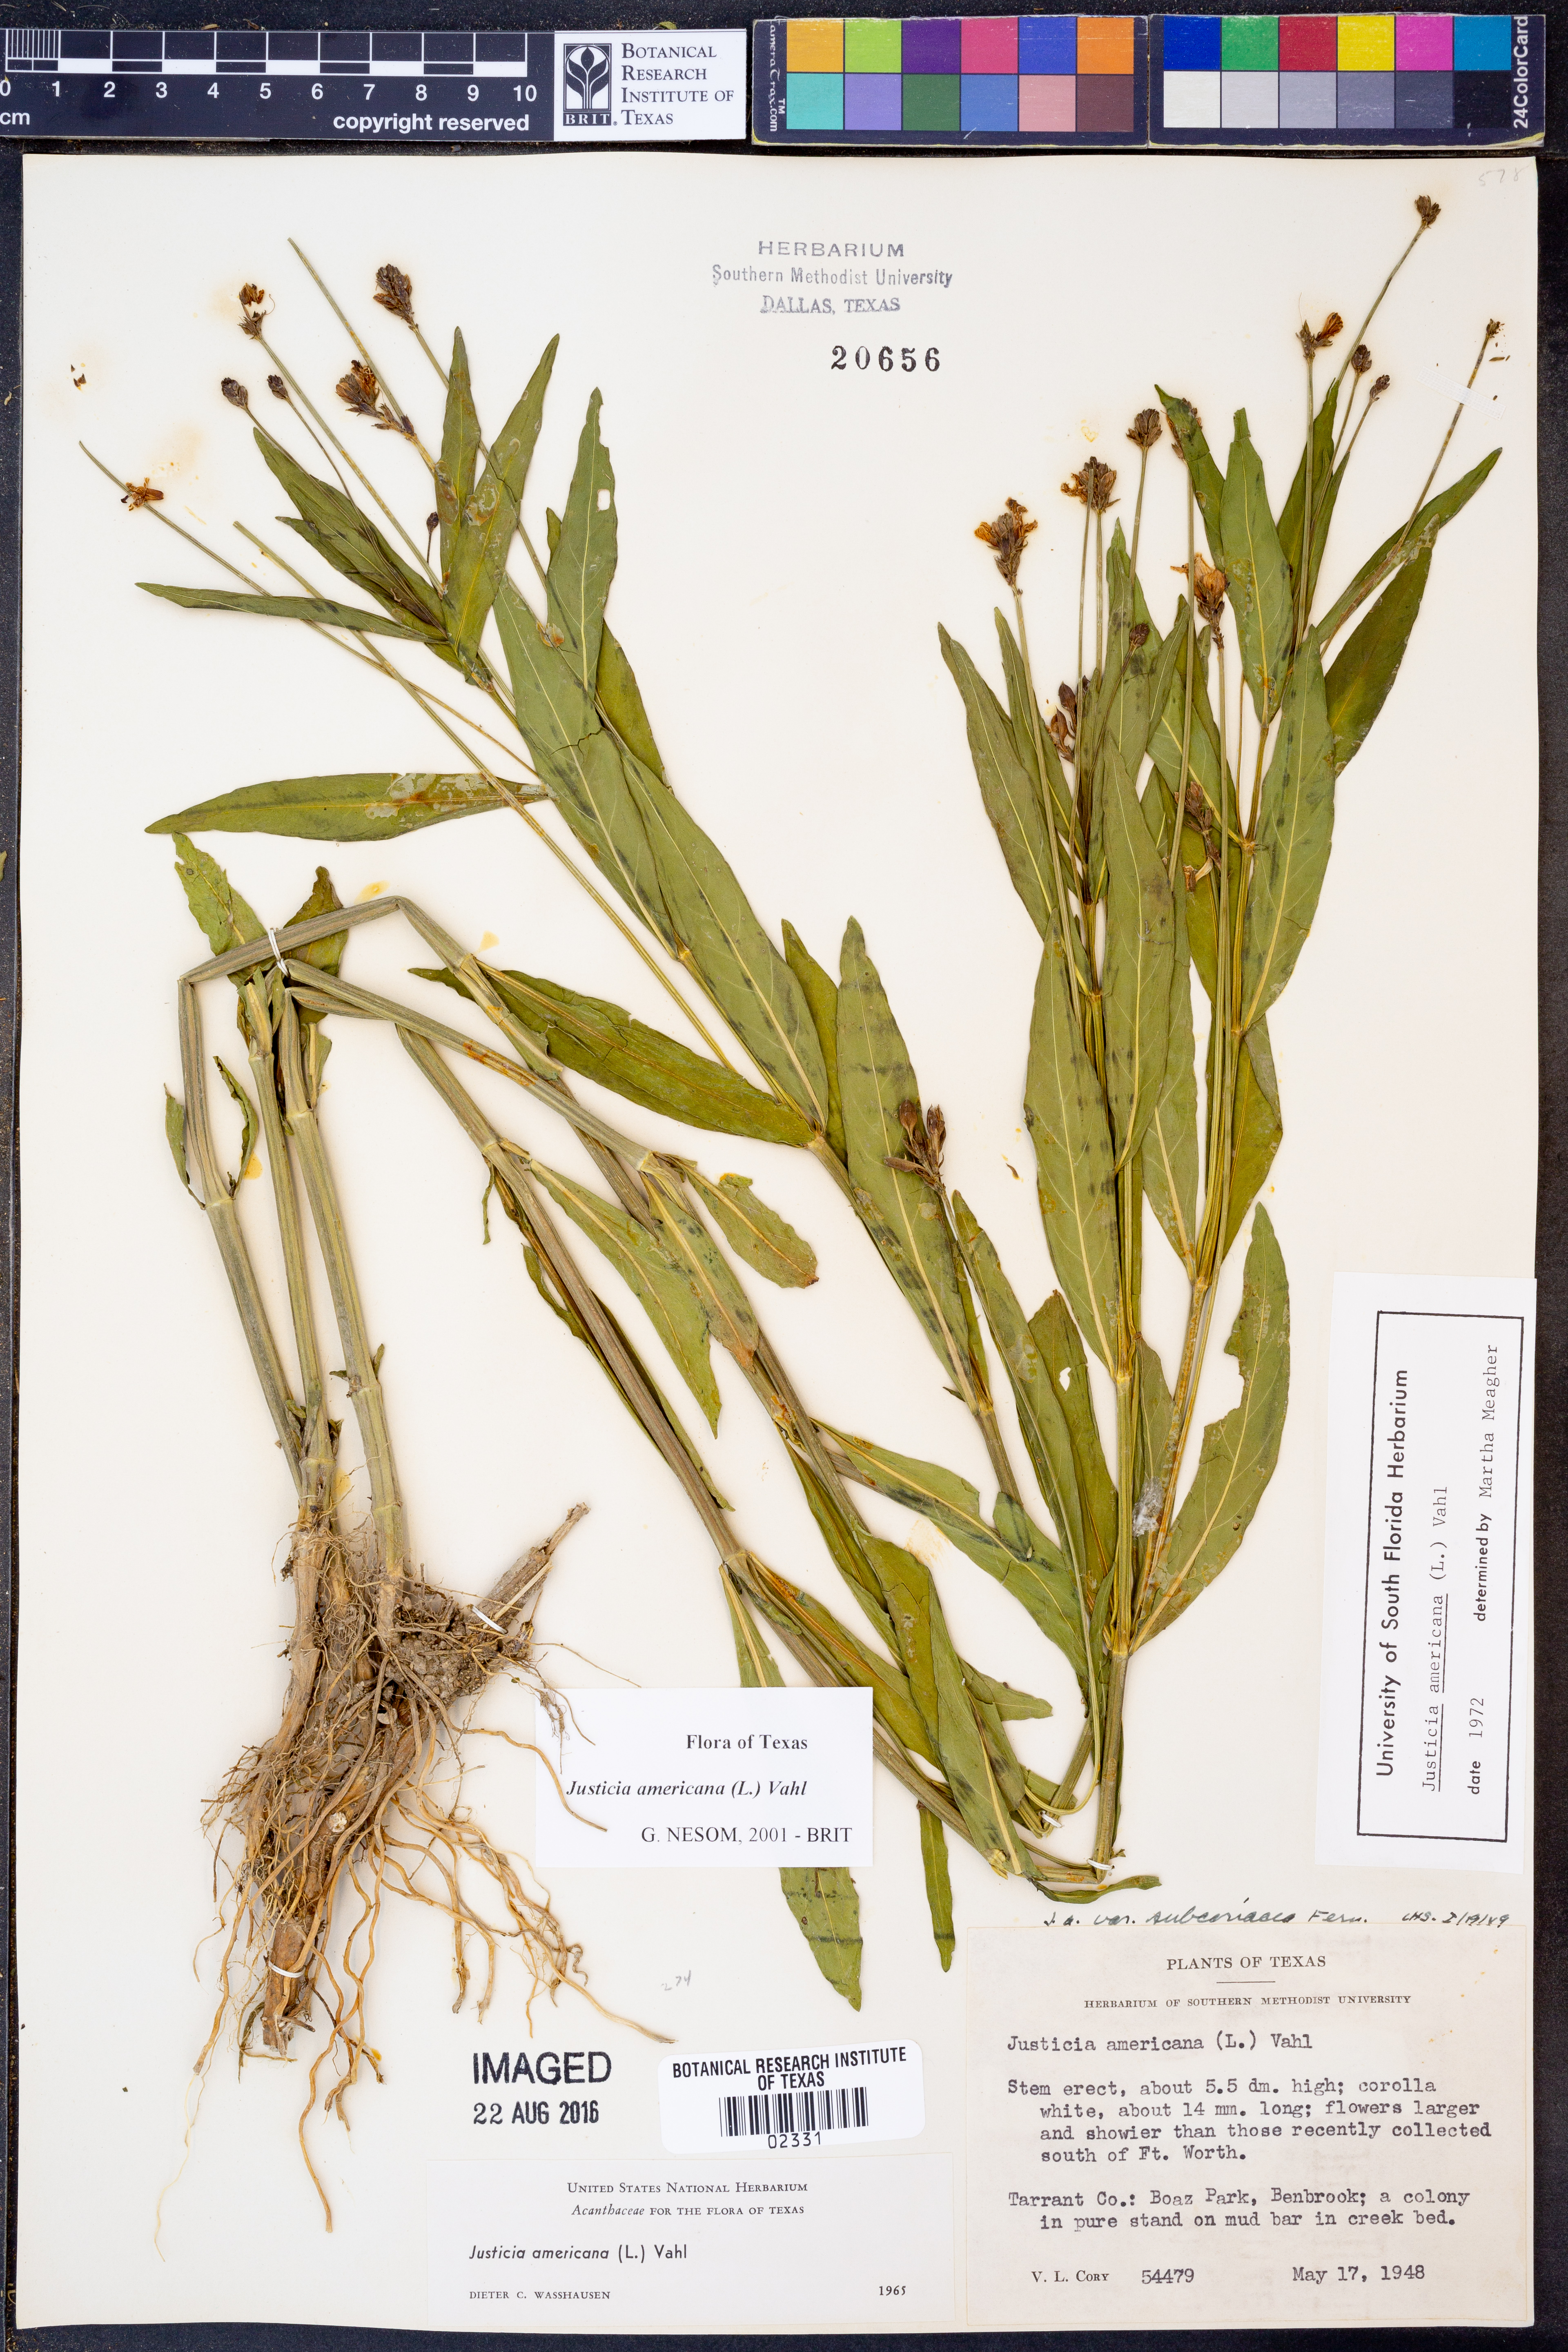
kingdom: Plantae
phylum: Tracheophyta
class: Magnoliopsida
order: Lamiales
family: Acanthaceae
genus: Dianthera
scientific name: Dianthera americana
